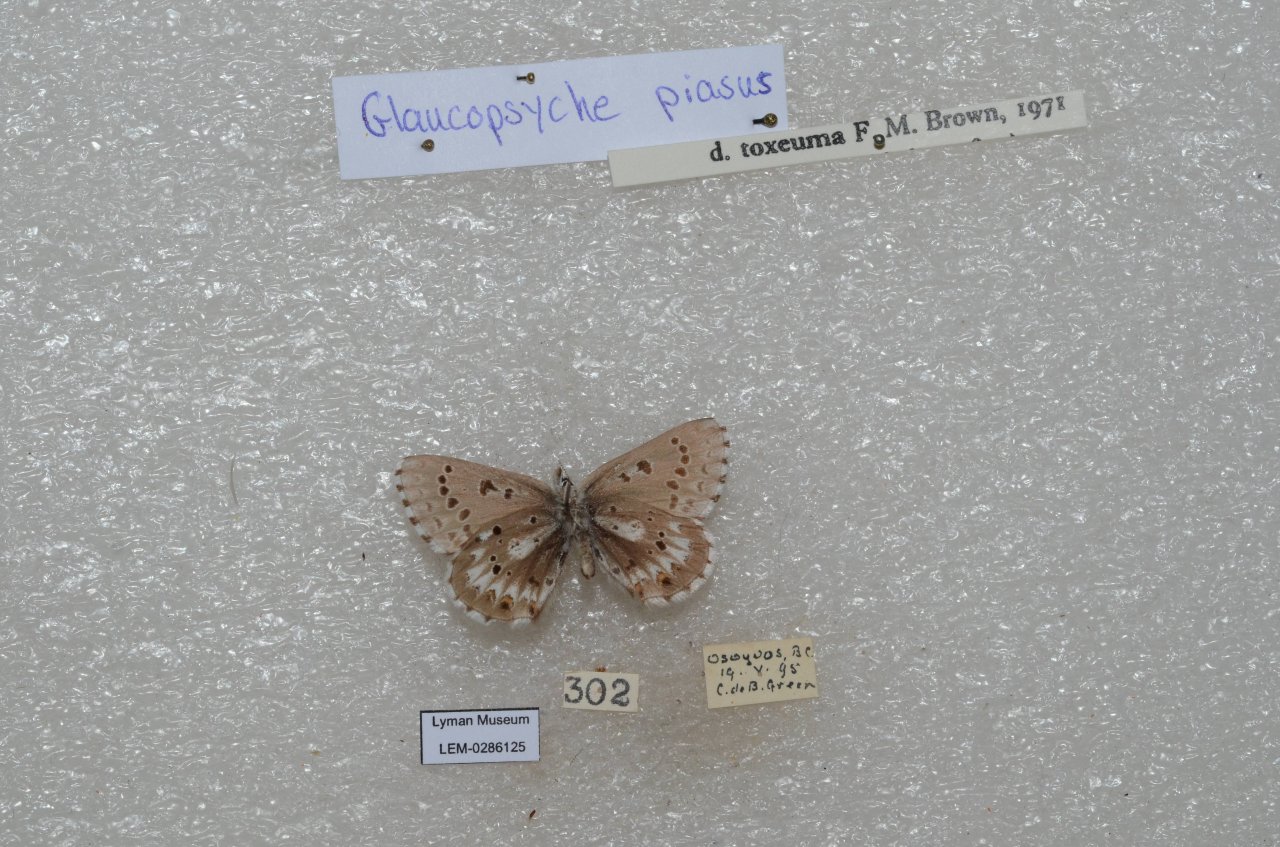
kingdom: Animalia
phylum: Arthropoda
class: Insecta
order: Lepidoptera
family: Lycaenidae
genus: Glaucopsyche
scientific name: Glaucopsyche piasus
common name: Arrowhead Blue
